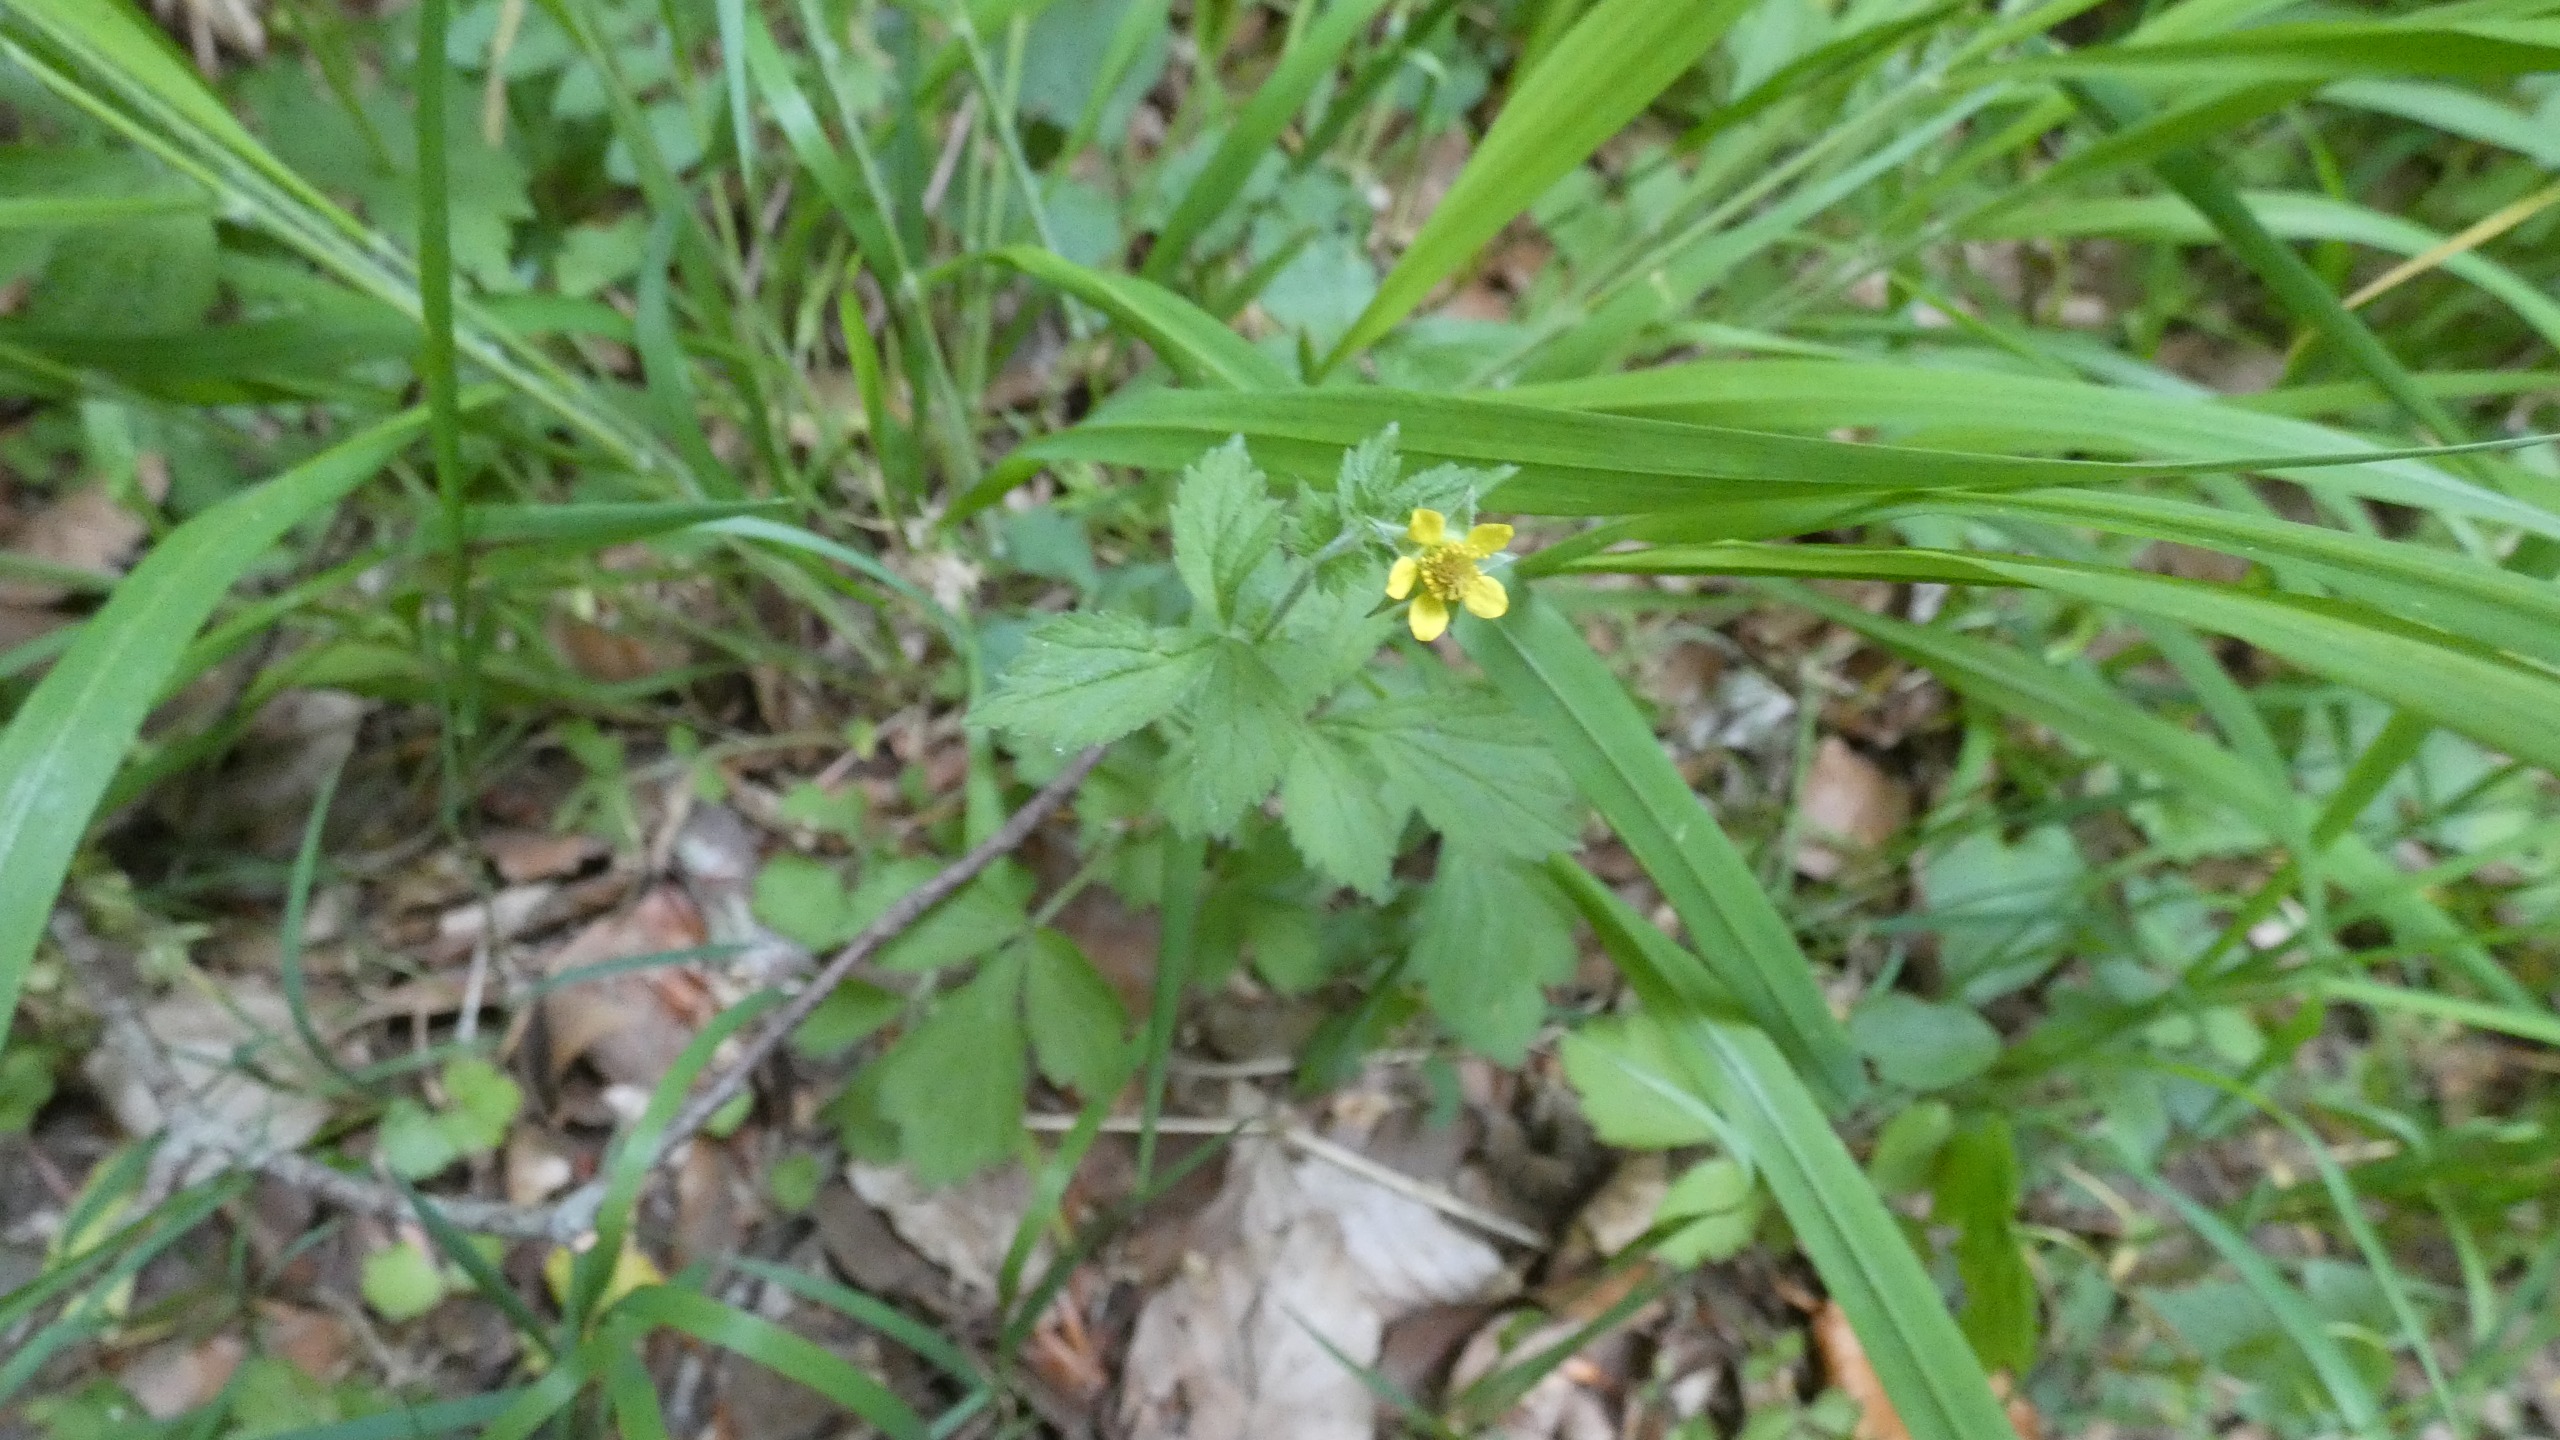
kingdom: Plantae
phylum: Tracheophyta
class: Magnoliopsida
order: Rosales
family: Rosaceae
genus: Geum
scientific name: Geum urbanum
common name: Feber-nellikerod
